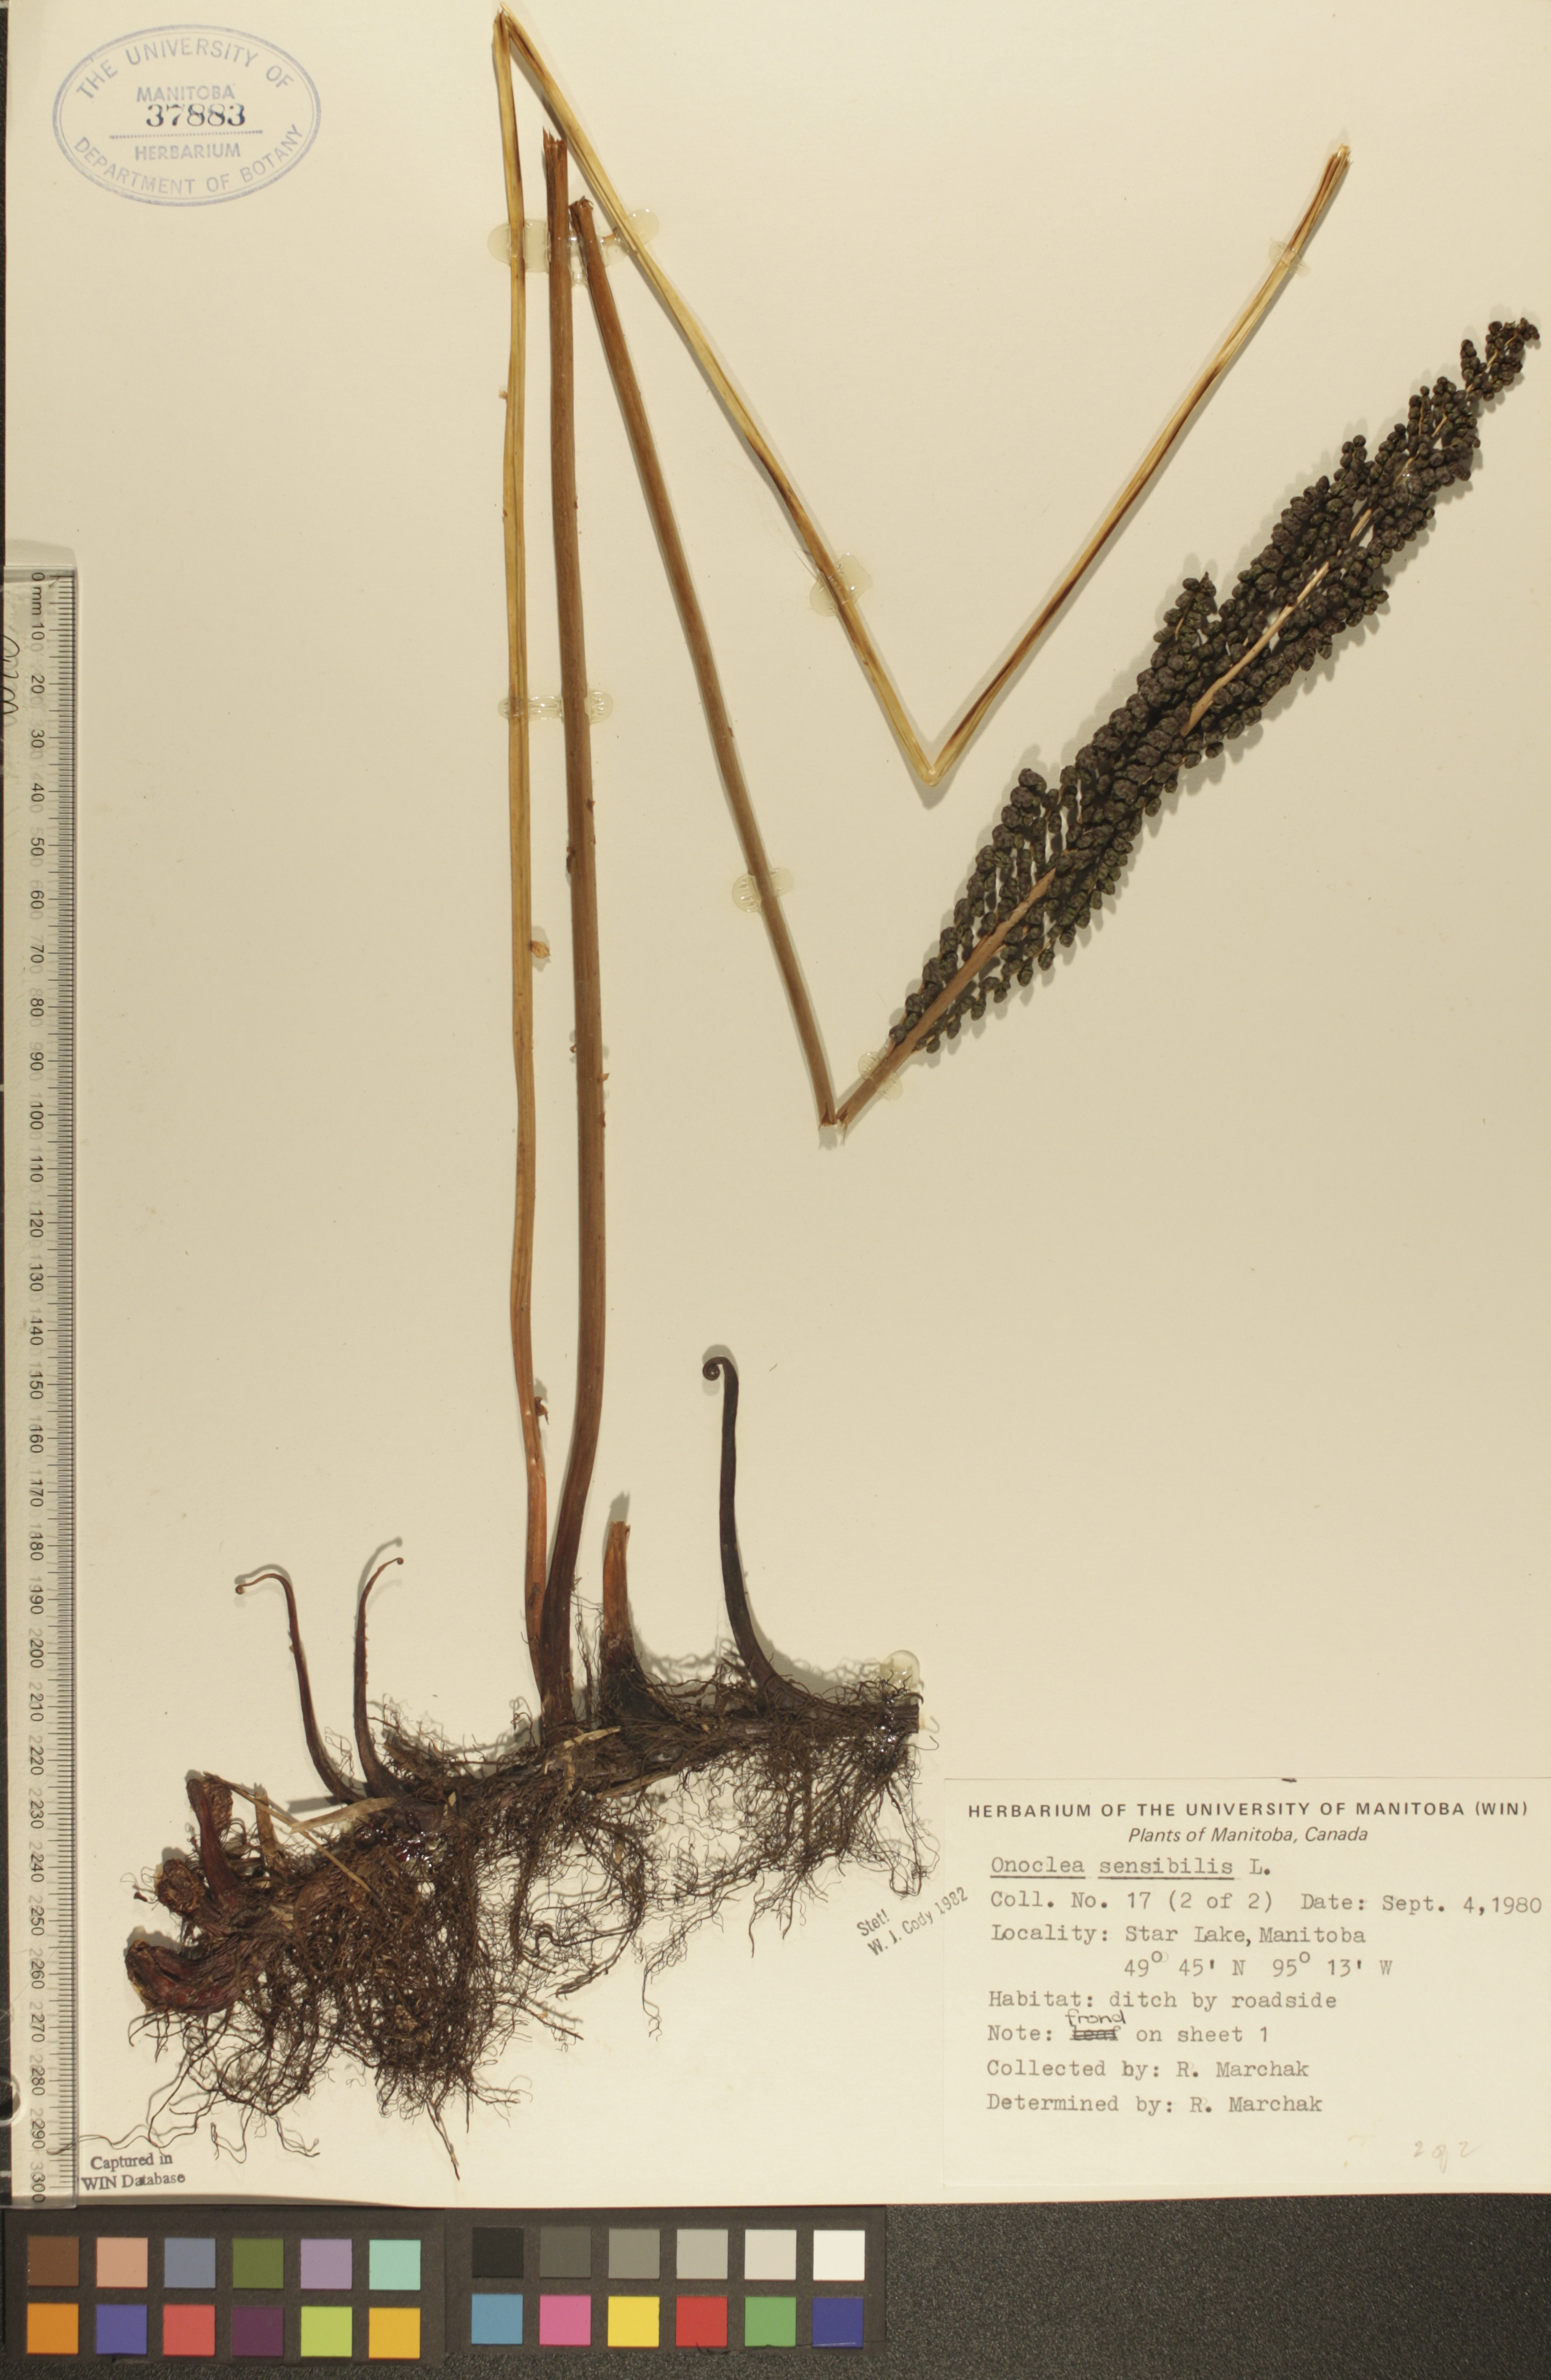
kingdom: Plantae
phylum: Tracheophyta
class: Polypodiopsida
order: Polypodiales
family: Onocleaceae
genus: Onoclea
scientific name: Onoclea sensibilis
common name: Sensitive fern
